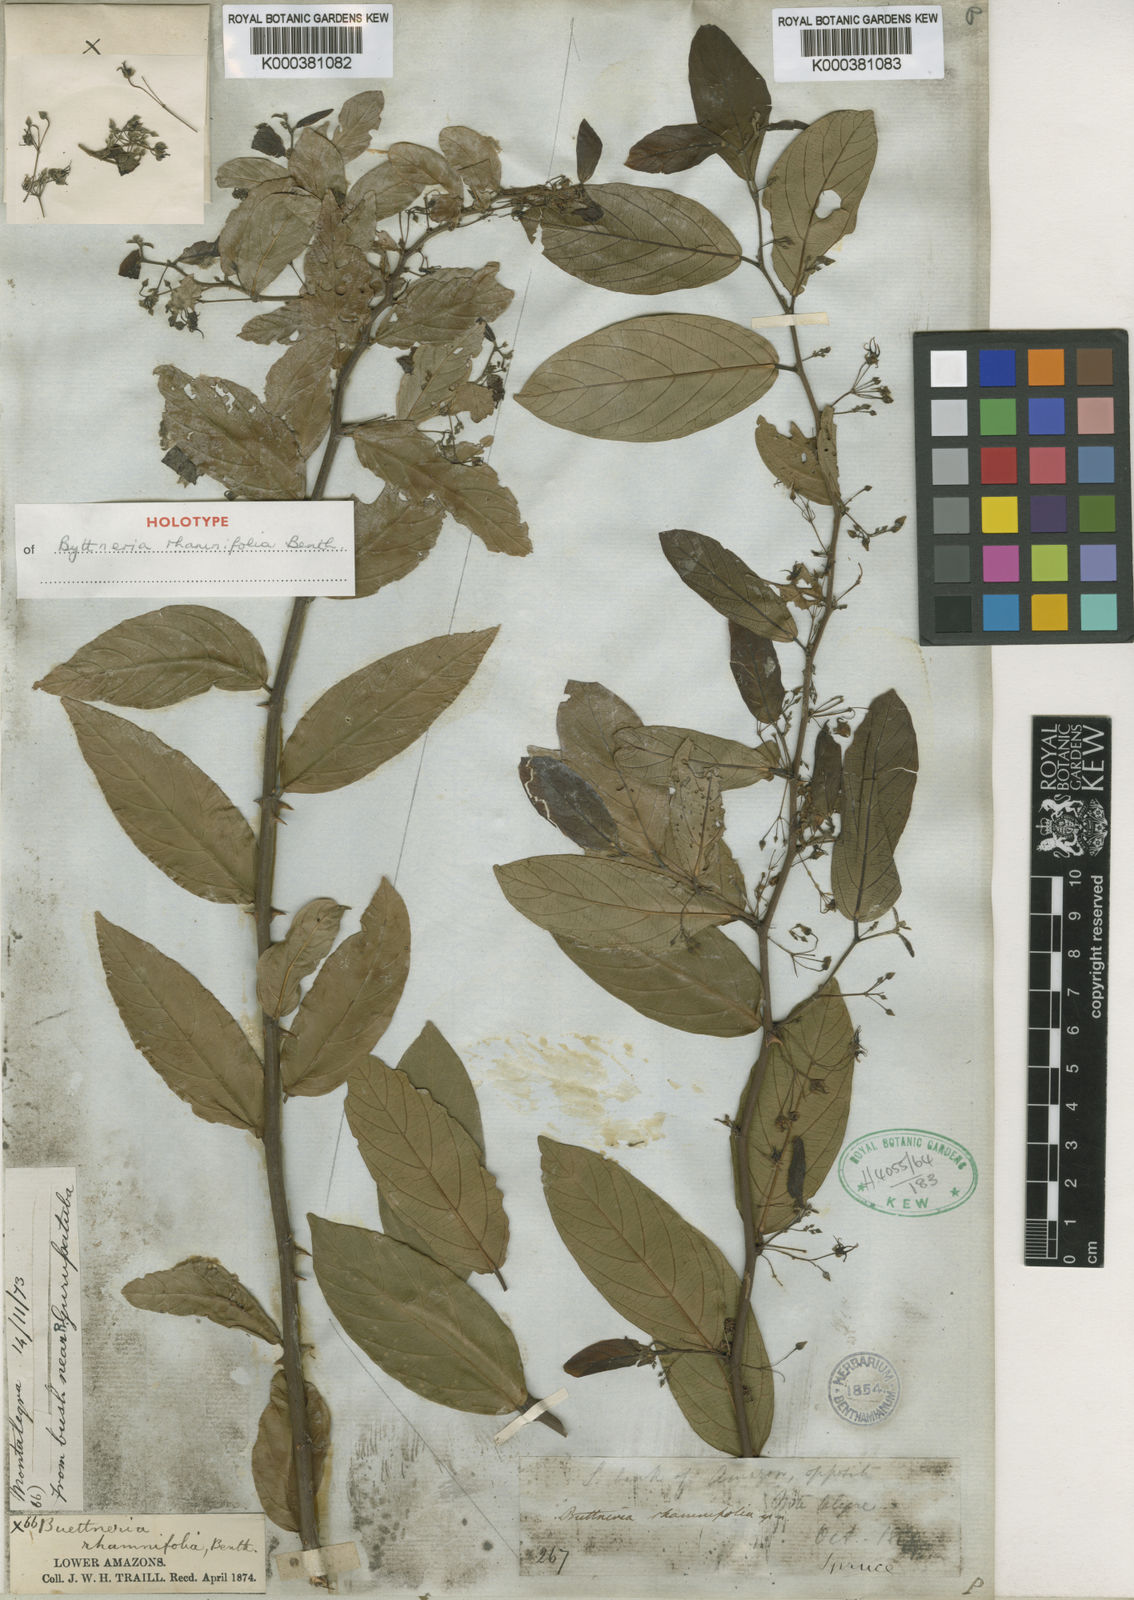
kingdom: Plantae
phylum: Tracheophyta
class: Magnoliopsida
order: Malvales
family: Malvaceae
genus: Byttneria
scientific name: Byttneria rhamnifolia
